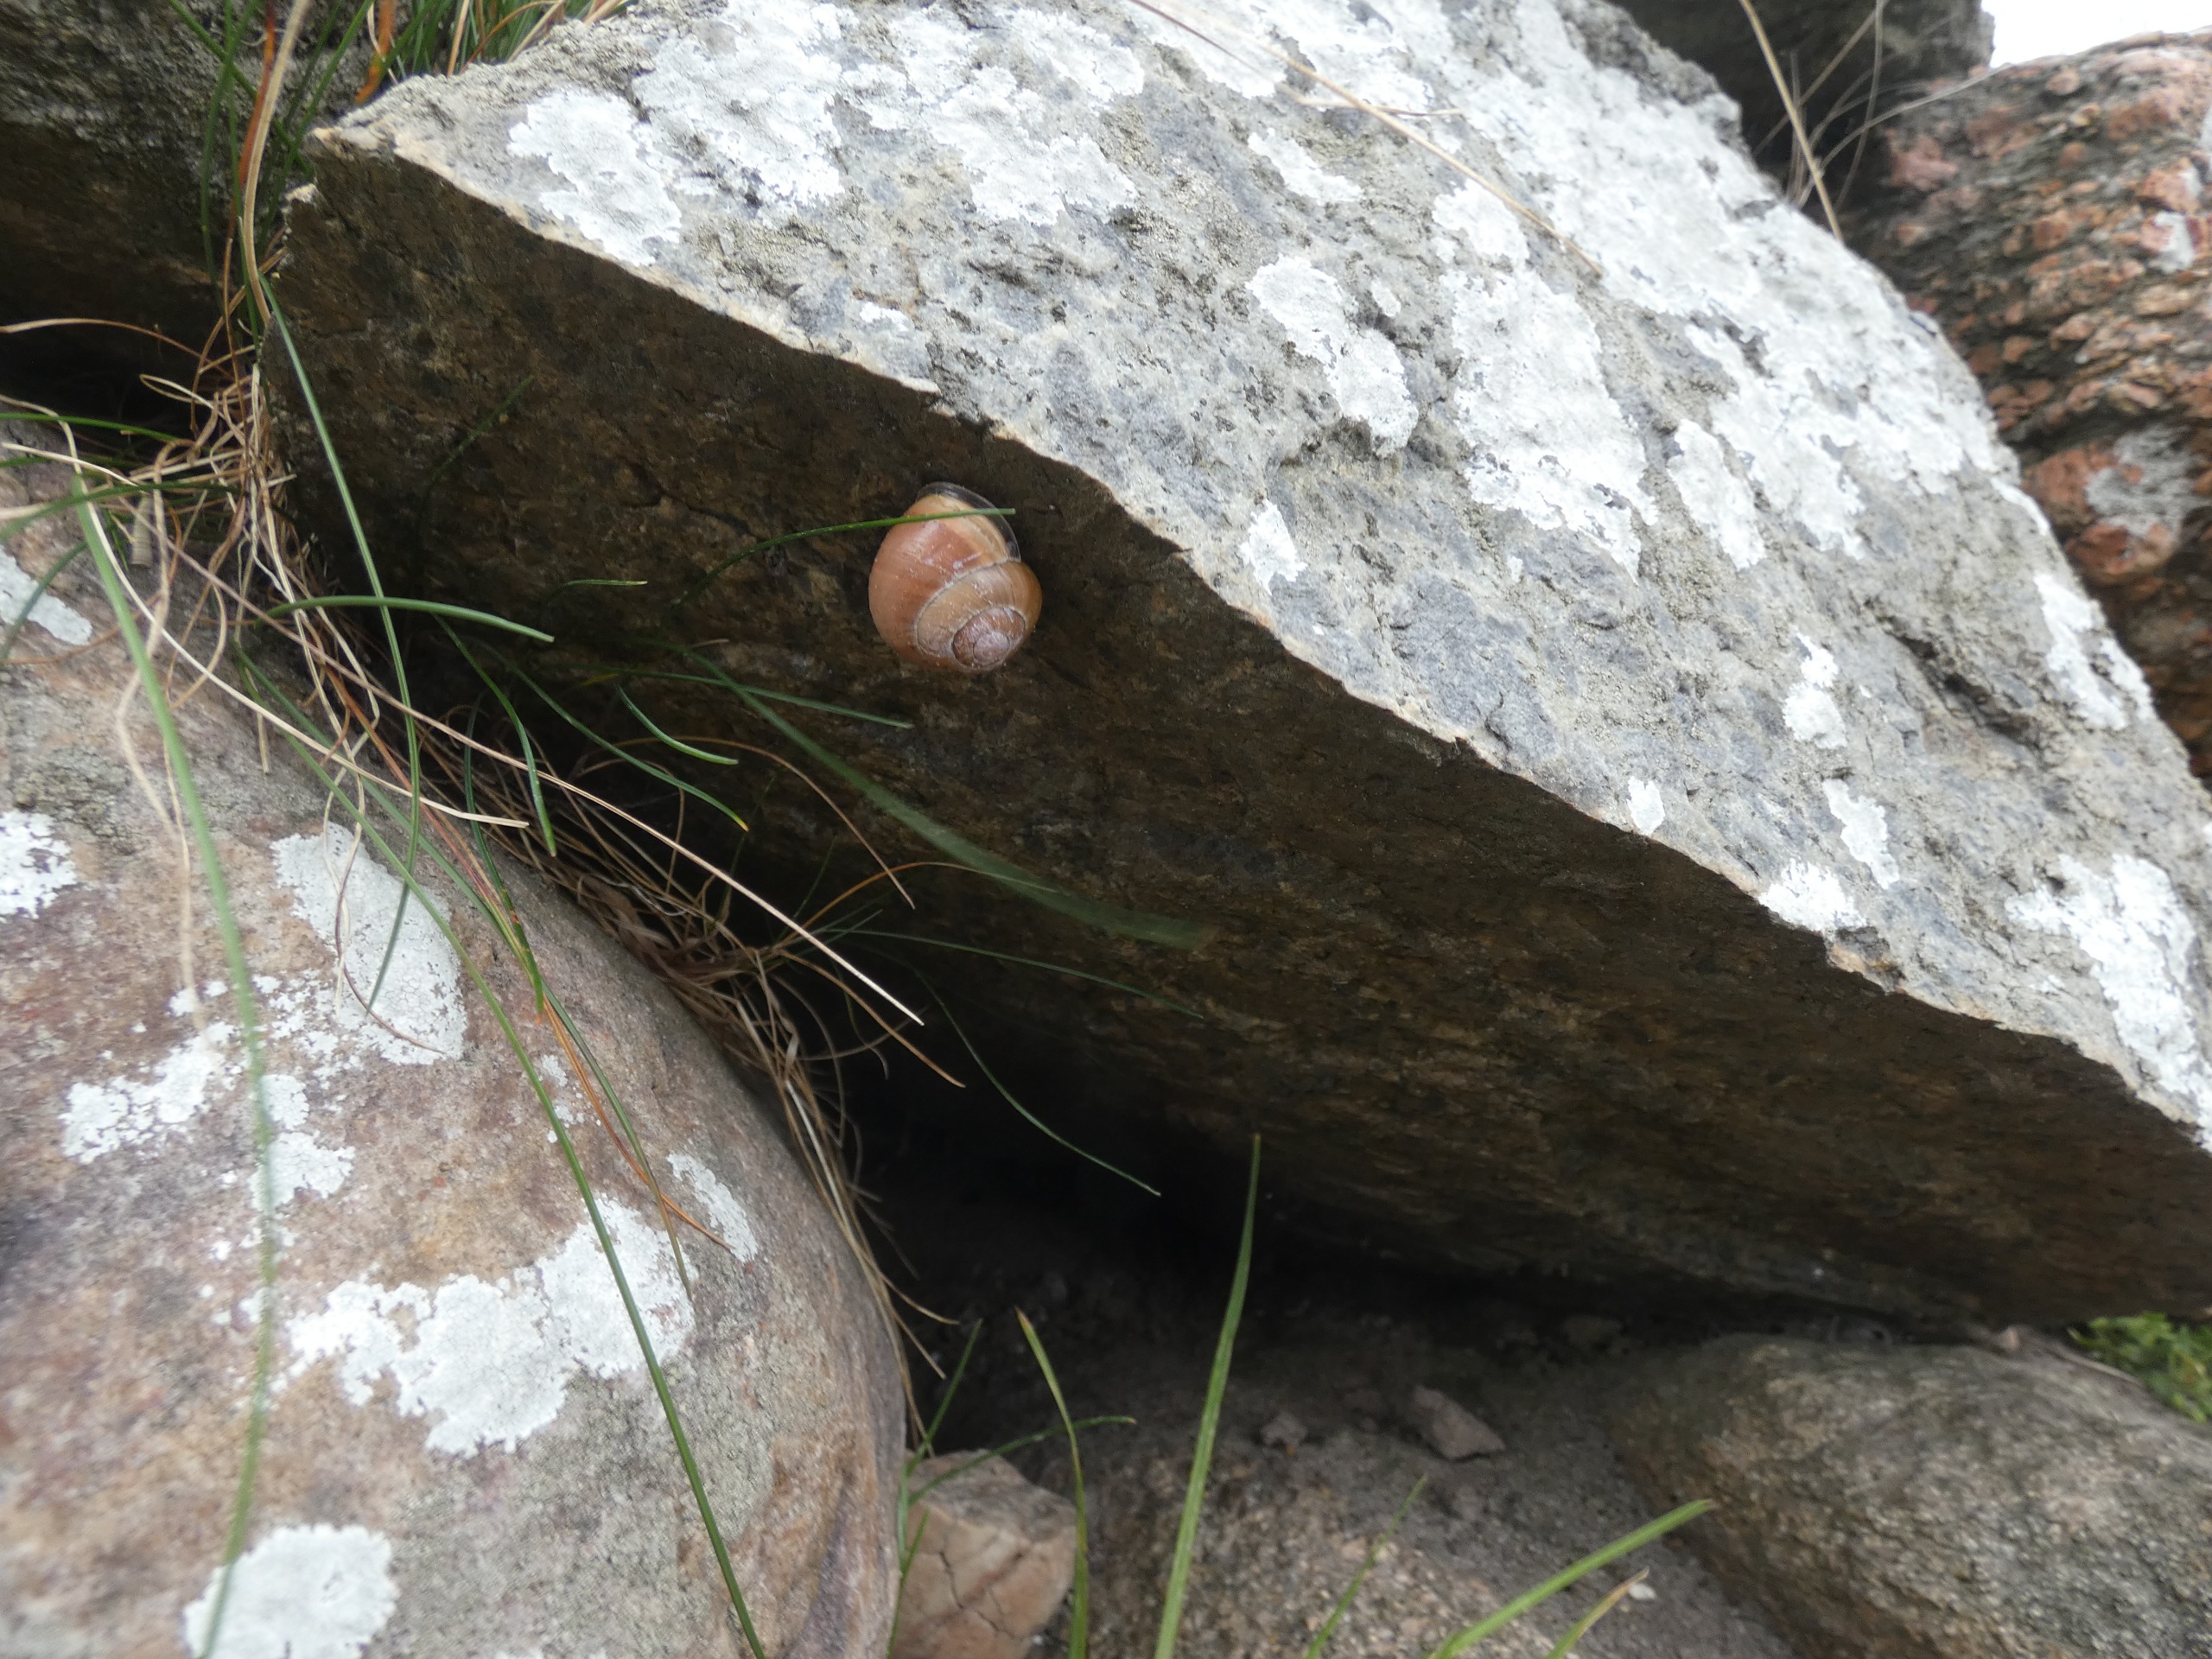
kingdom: Animalia
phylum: Mollusca
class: Gastropoda
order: Stylommatophora
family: Helicidae
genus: Cepaea
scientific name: Cepaea nemoralis
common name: Lundsnegl
